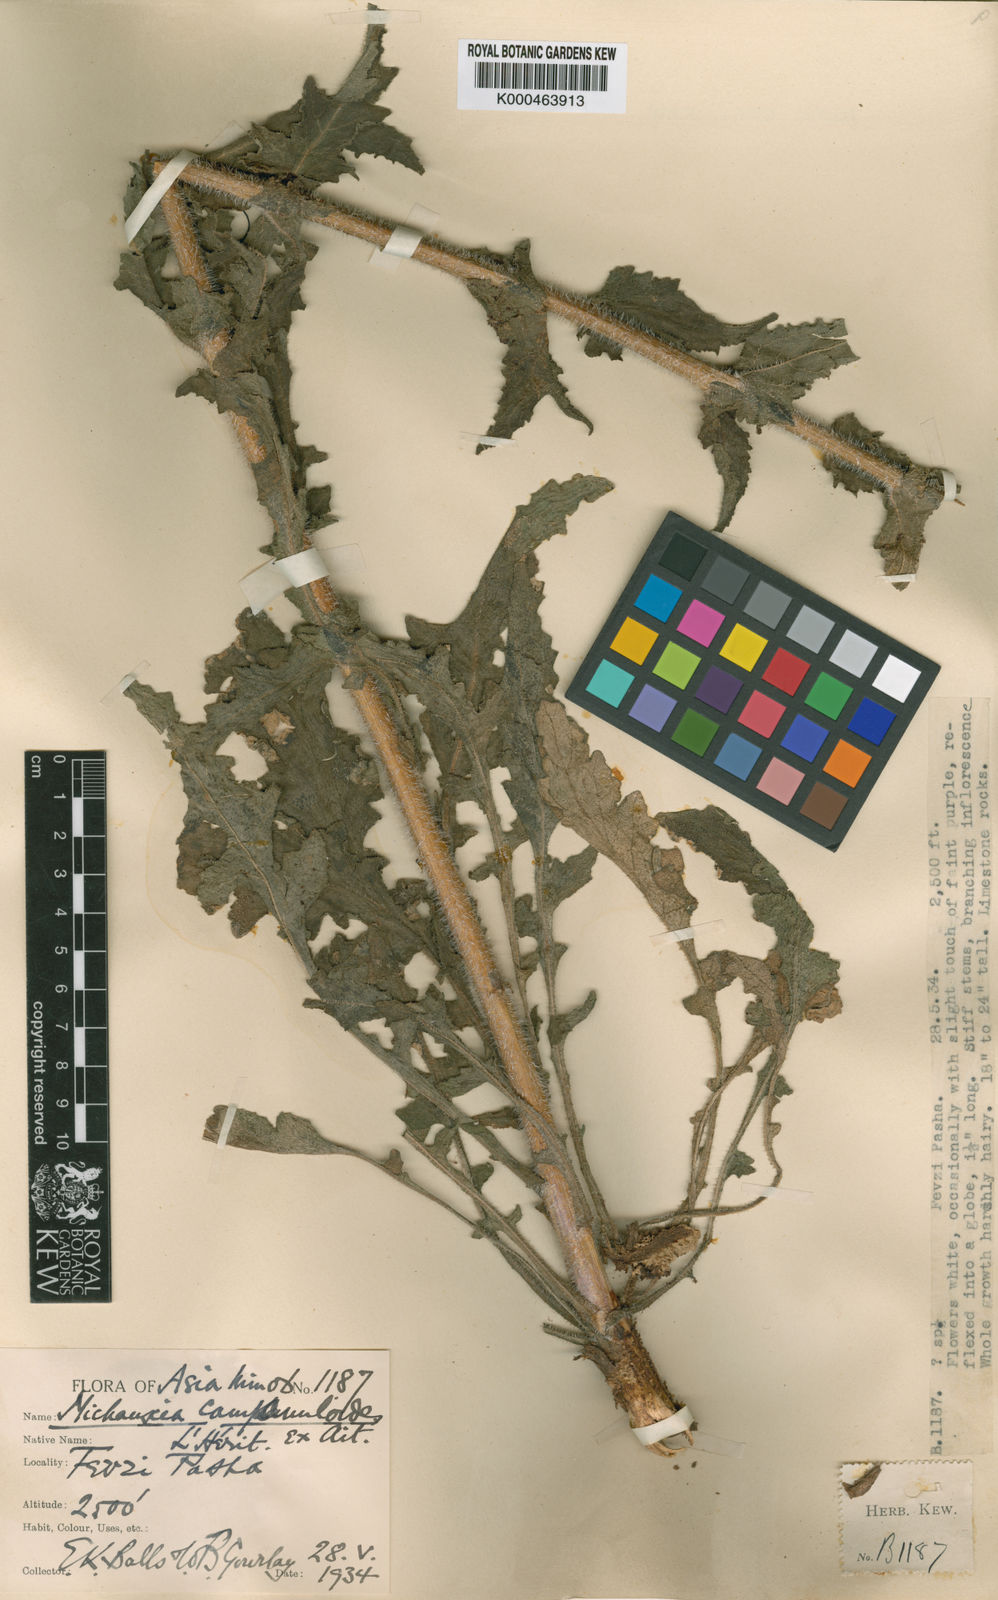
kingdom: Plantae
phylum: Tracheophyta
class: Magnoliopsida
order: Asterales
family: Campanulaceae
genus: Michauxia
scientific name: Michauxia
